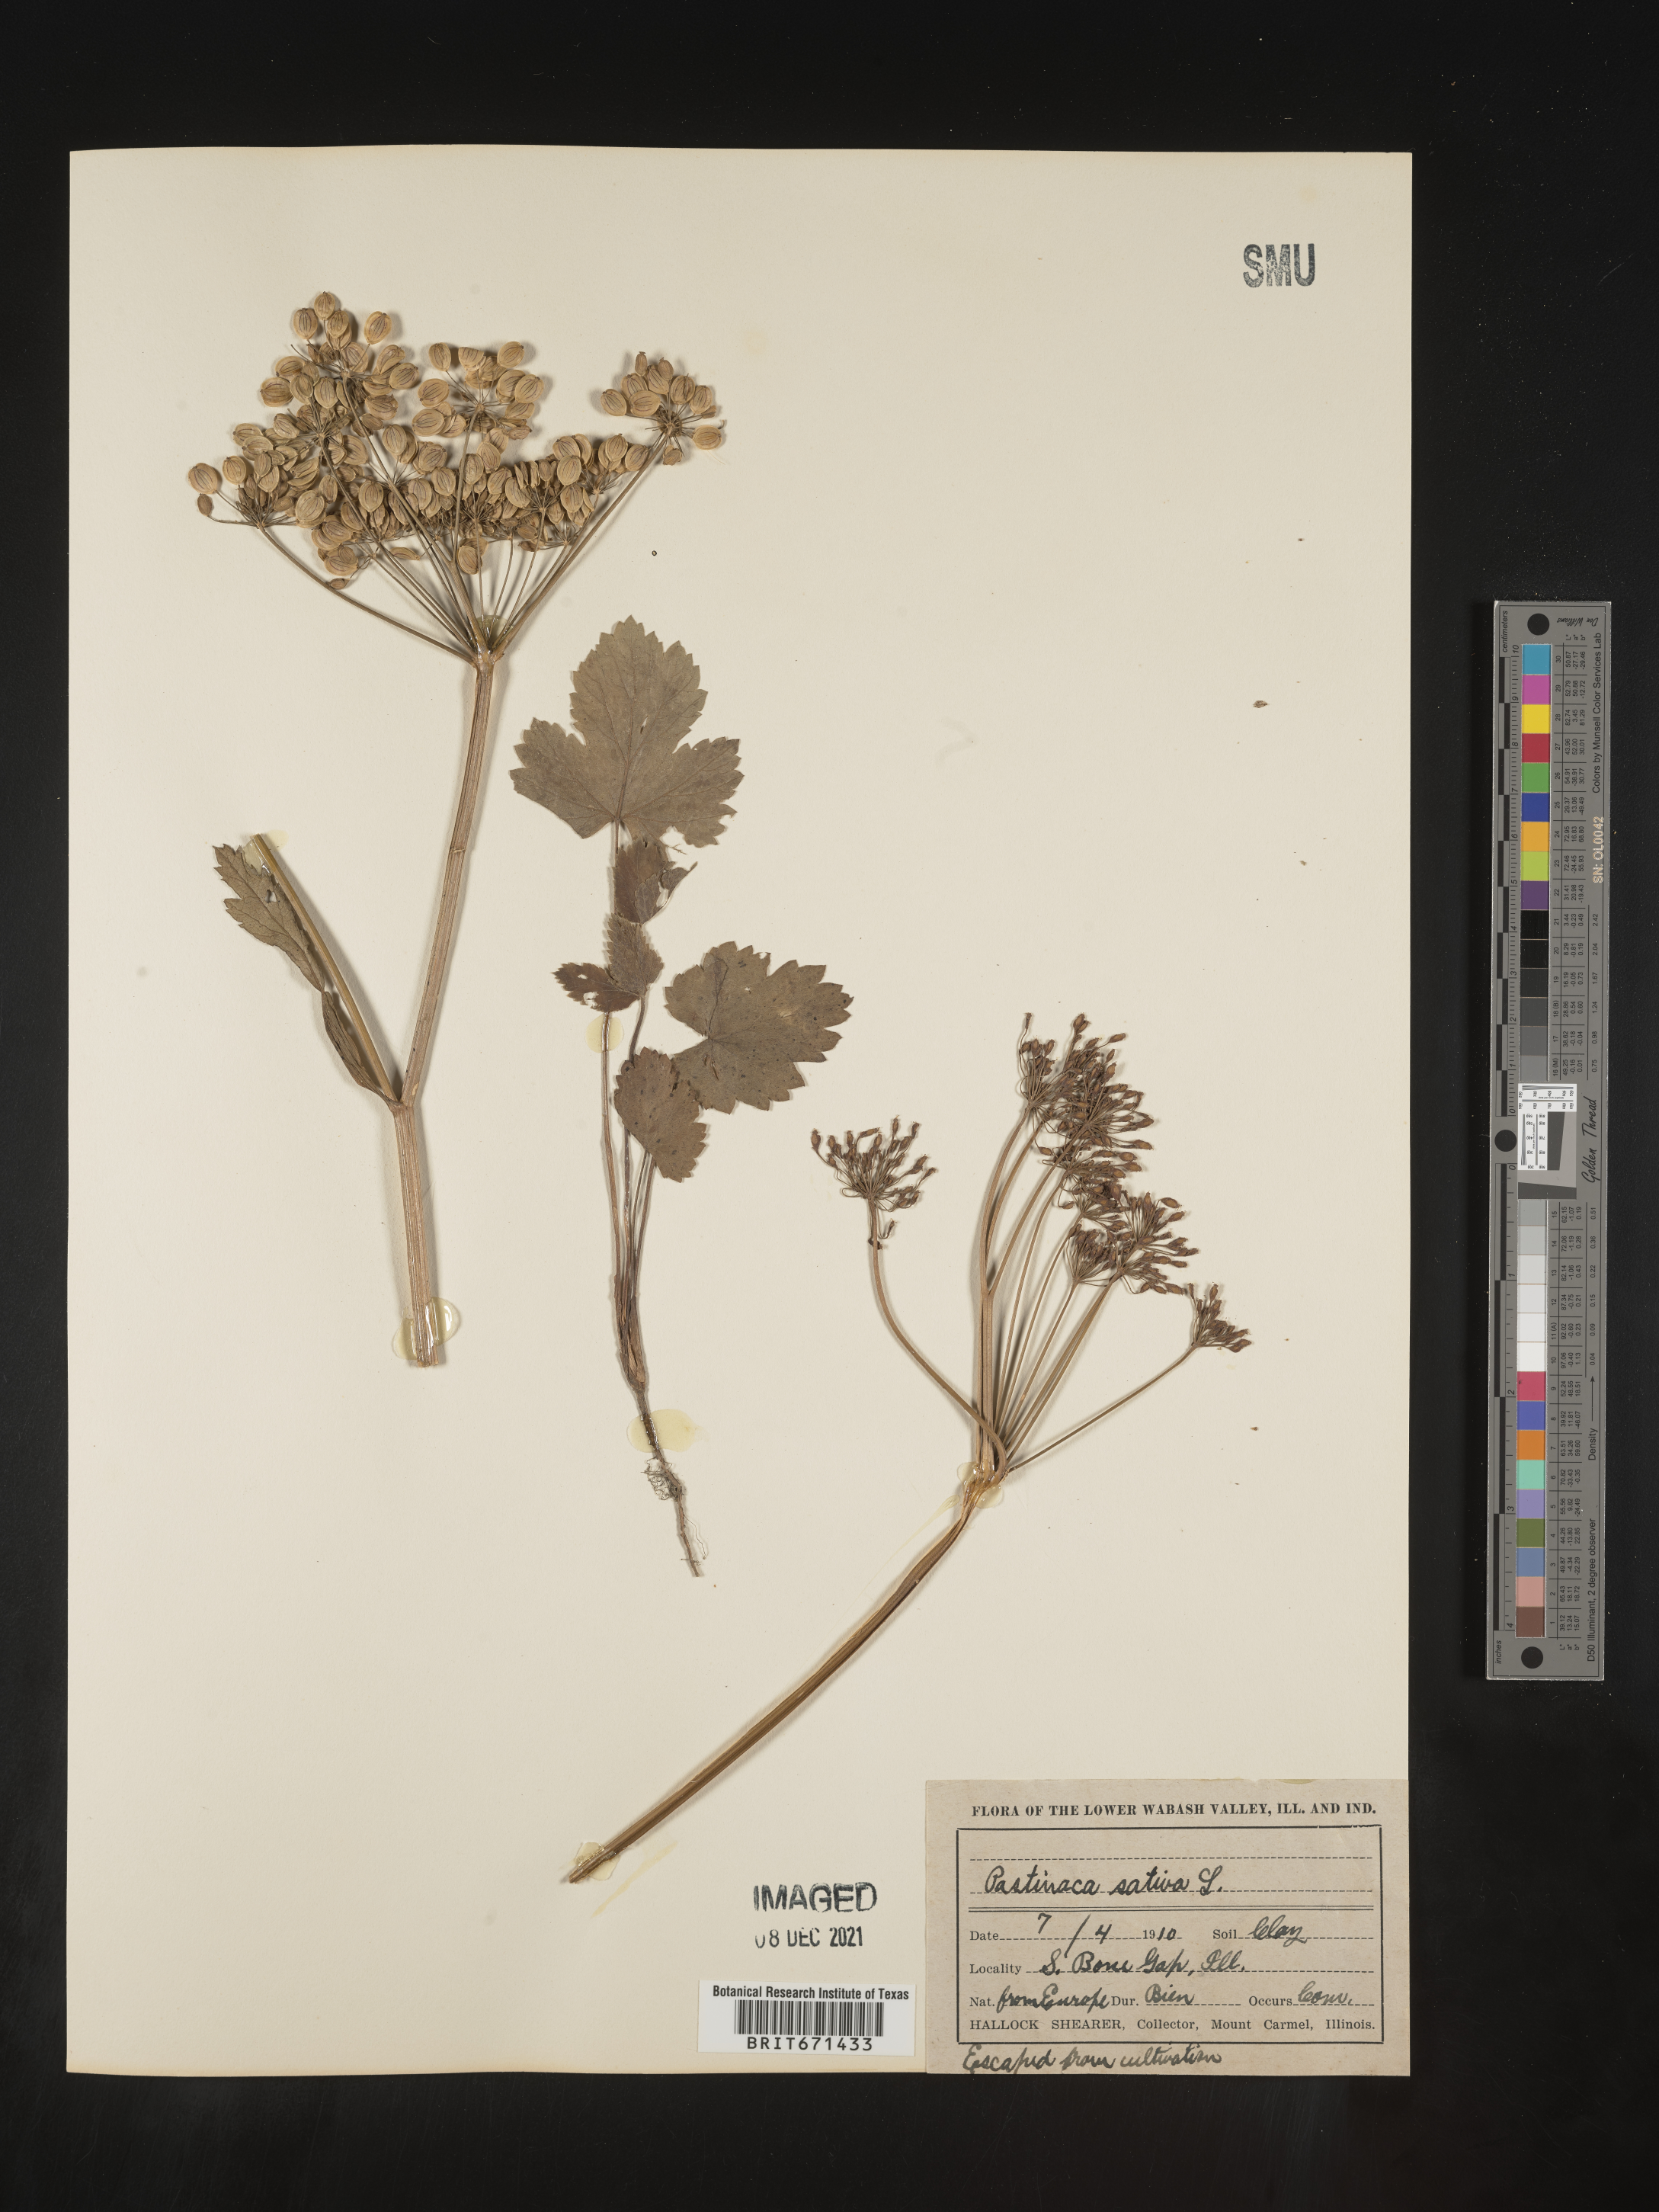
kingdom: Plantae
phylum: Tracheophyta
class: Magnoliopsida
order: Apiales
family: Apiaceae
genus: Pastinaca
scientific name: Pastinaca
